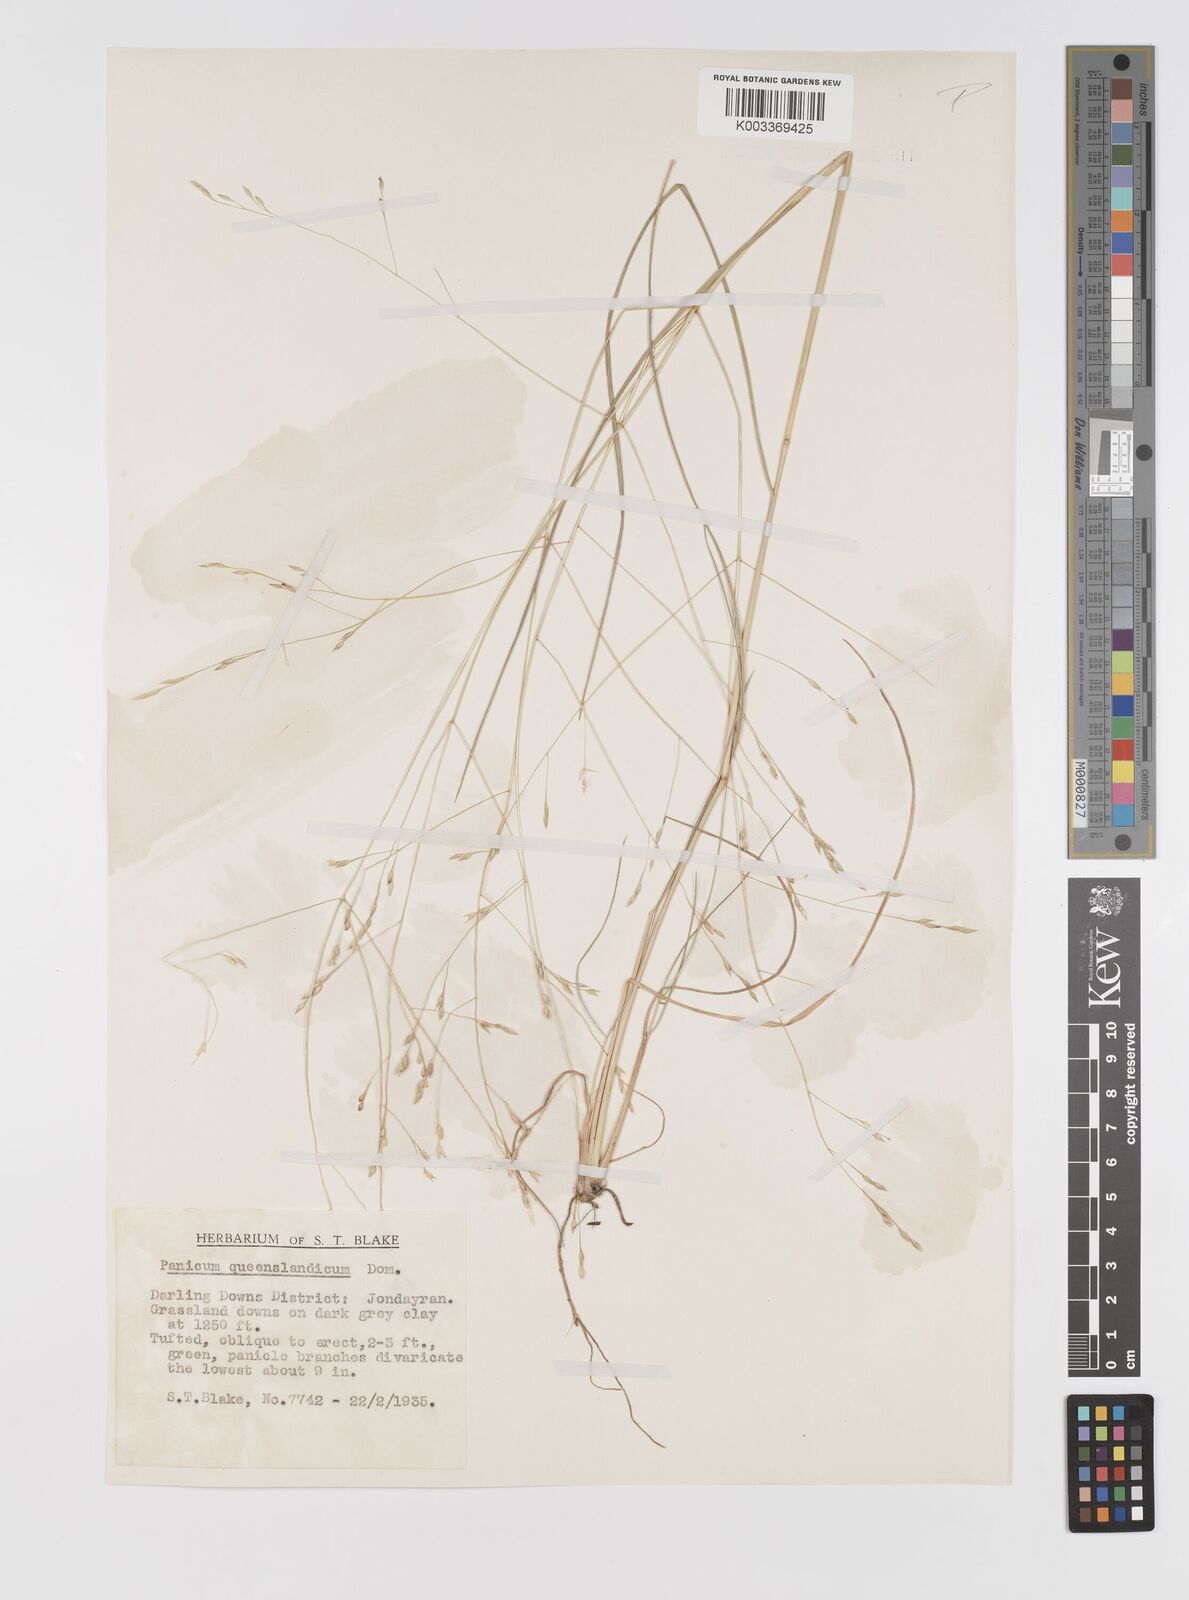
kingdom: Plantae
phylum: Tracheophyta
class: Liliopsida
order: Poales
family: Poaceae
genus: Panicum
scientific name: Panicum queenslandicum
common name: Yabila grass
